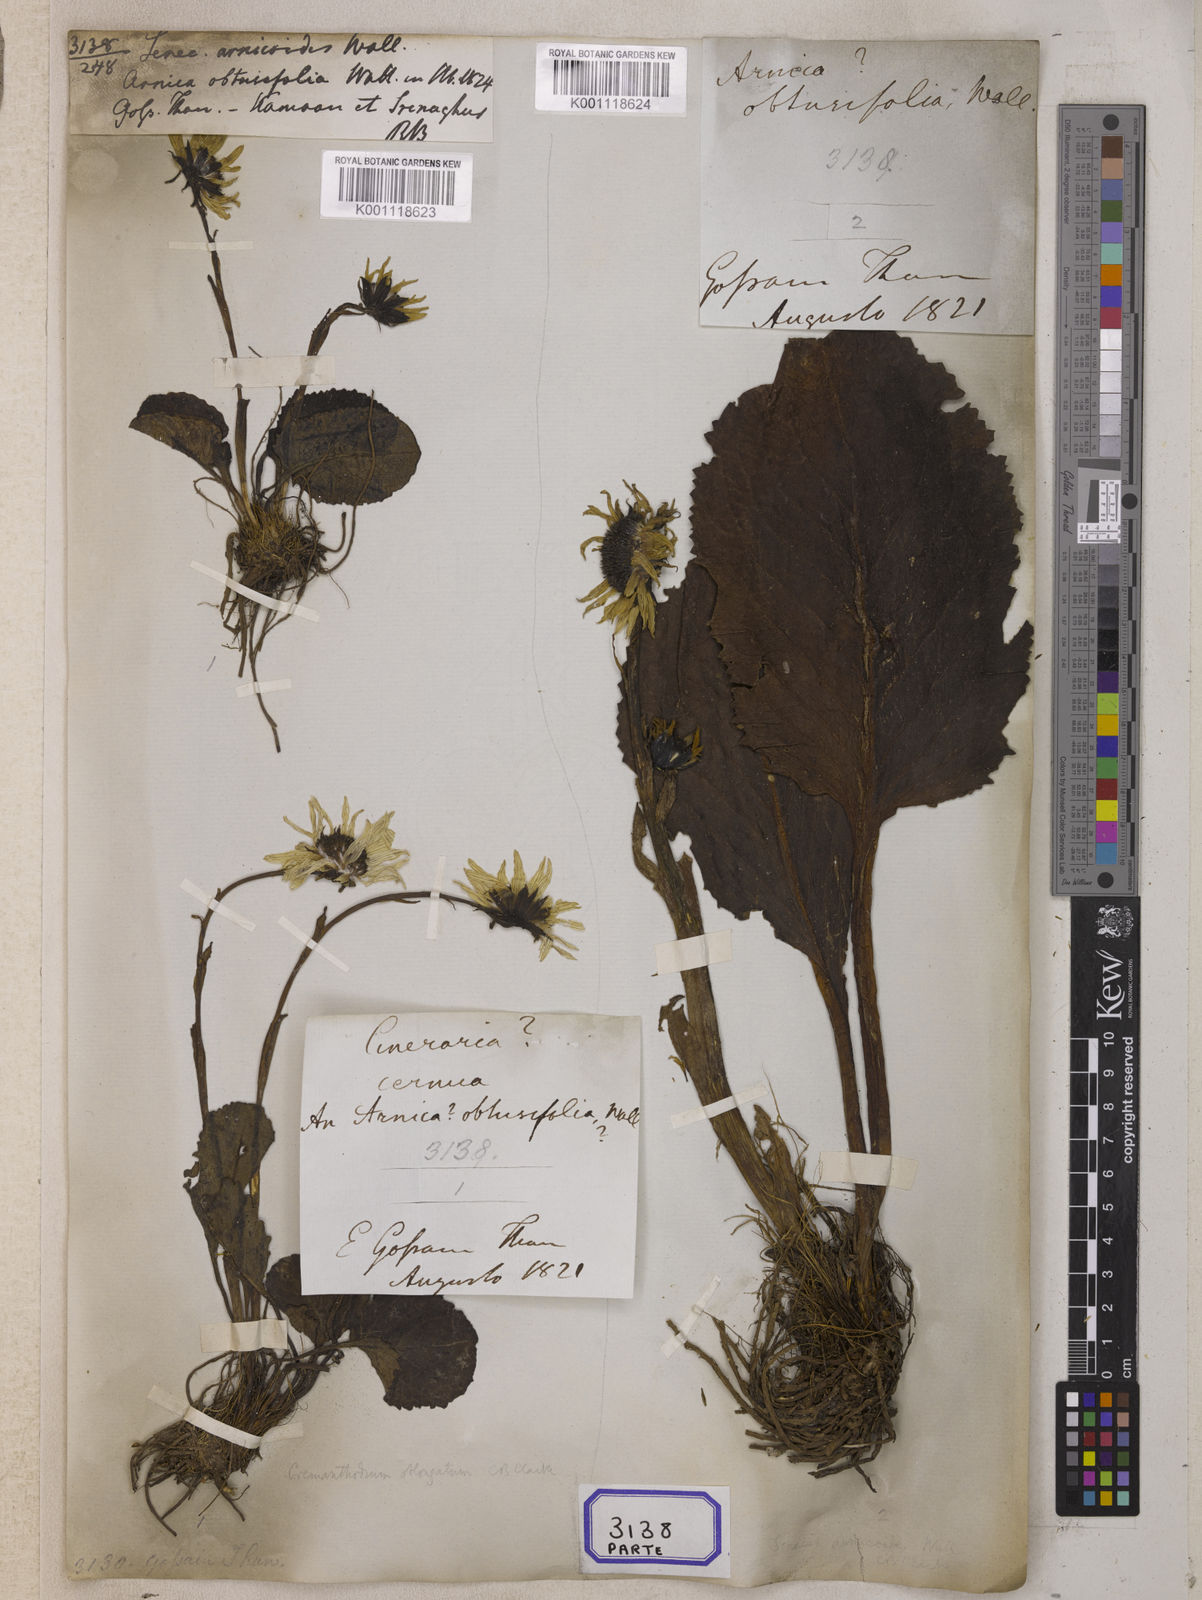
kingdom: Plantae
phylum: Tracheophyta
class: Magnoliopsida
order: Asterales
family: Asteraceae
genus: Senecio
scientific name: Senecio
